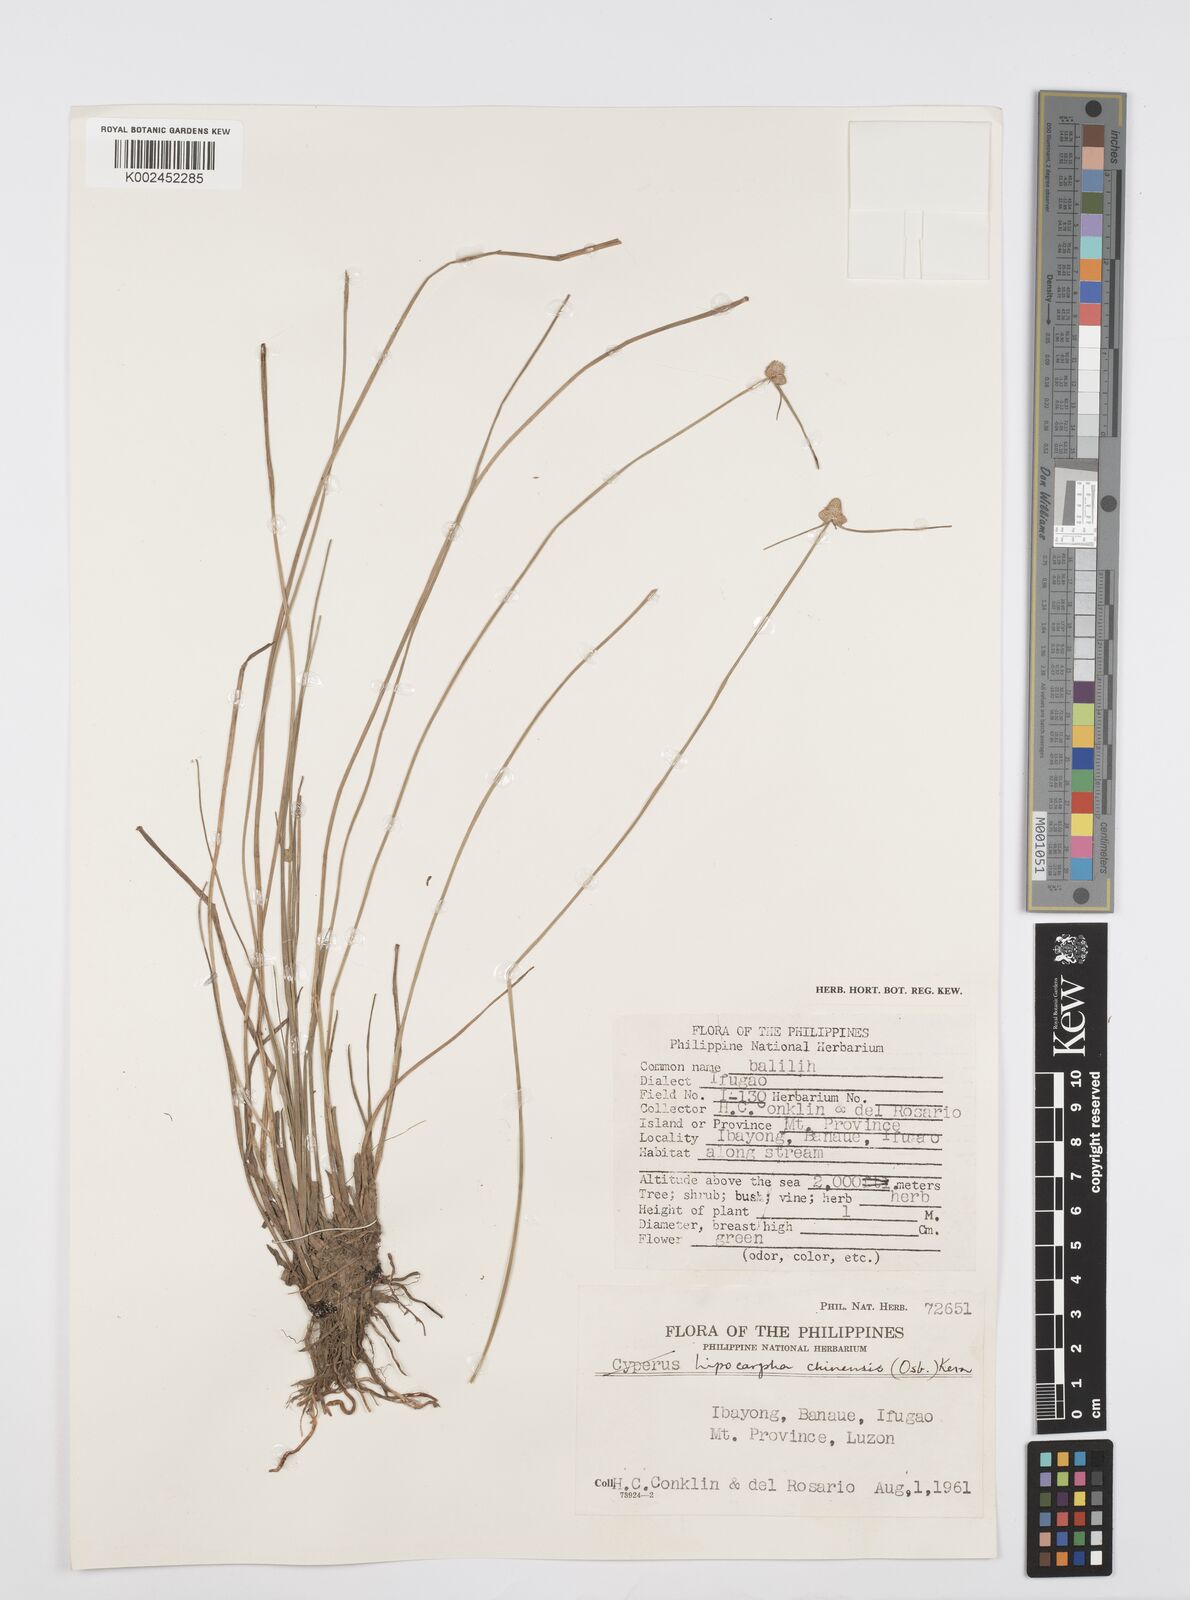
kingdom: Plantae
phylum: Tracheophyta
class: Liliopsida
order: Poales
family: Cyperaceae
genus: Cyperus
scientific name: Cyperus albescens
